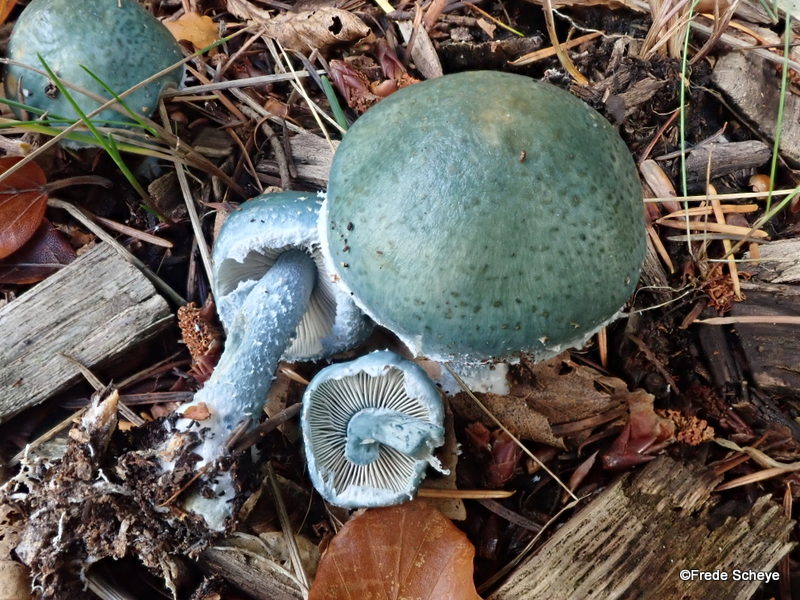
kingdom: Fungi
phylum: Basidiomycota
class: Agaricomycetes
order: Agaricales
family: Strophariaceae
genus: Stropharia
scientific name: Stropharia aeruginosa
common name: spanskgrøn bredblad
